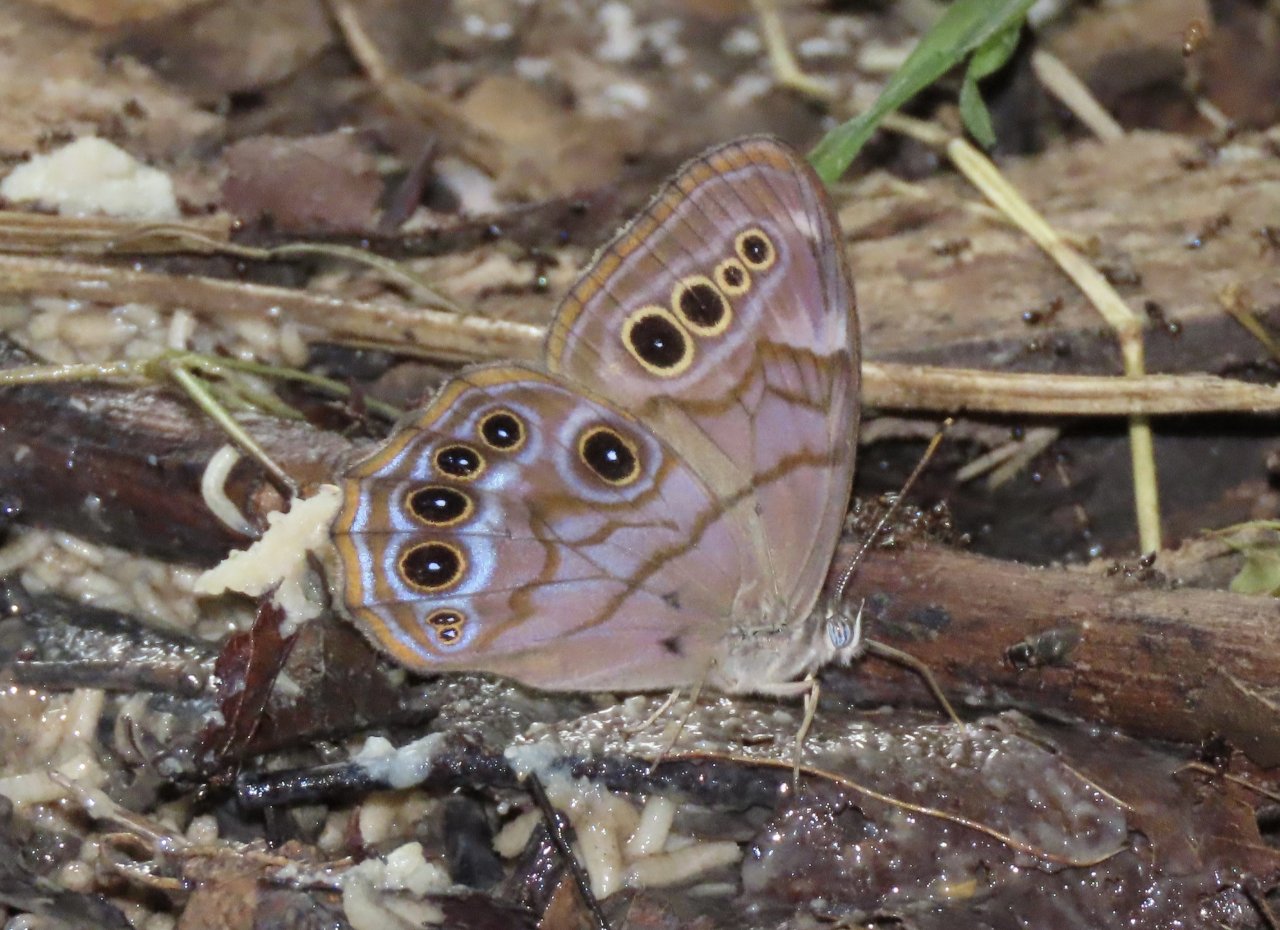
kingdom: Animalia
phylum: Arthropoda
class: Insecta
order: Lepidoptera
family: Nymphalidae
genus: Enodia
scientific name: Enodia portlandia
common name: Southern Pearly Eye
